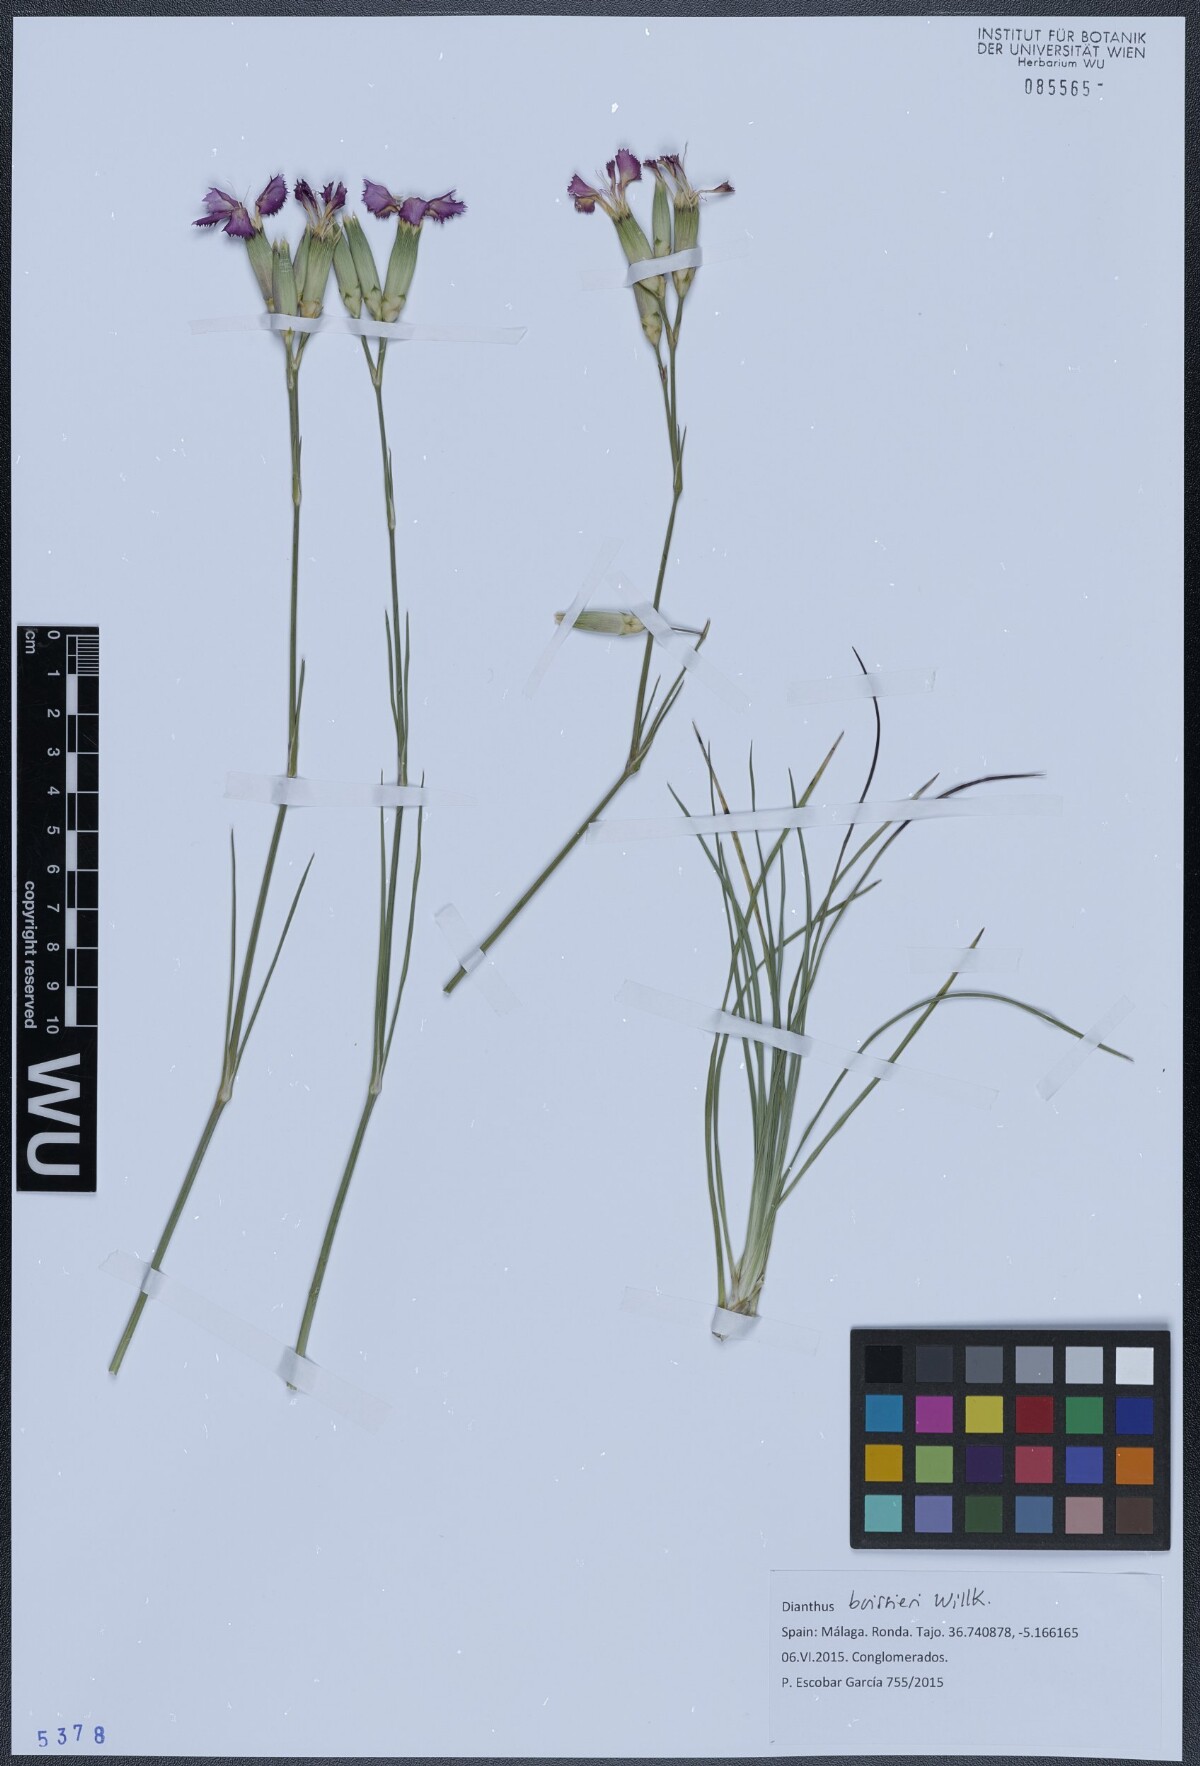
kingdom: Plantae
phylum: Tracheophyta
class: Magnoliopsida
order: Caryophyllales
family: Caryophyllaceae
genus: Dianthus
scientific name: Dianthus sylvestris
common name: Wood pink
